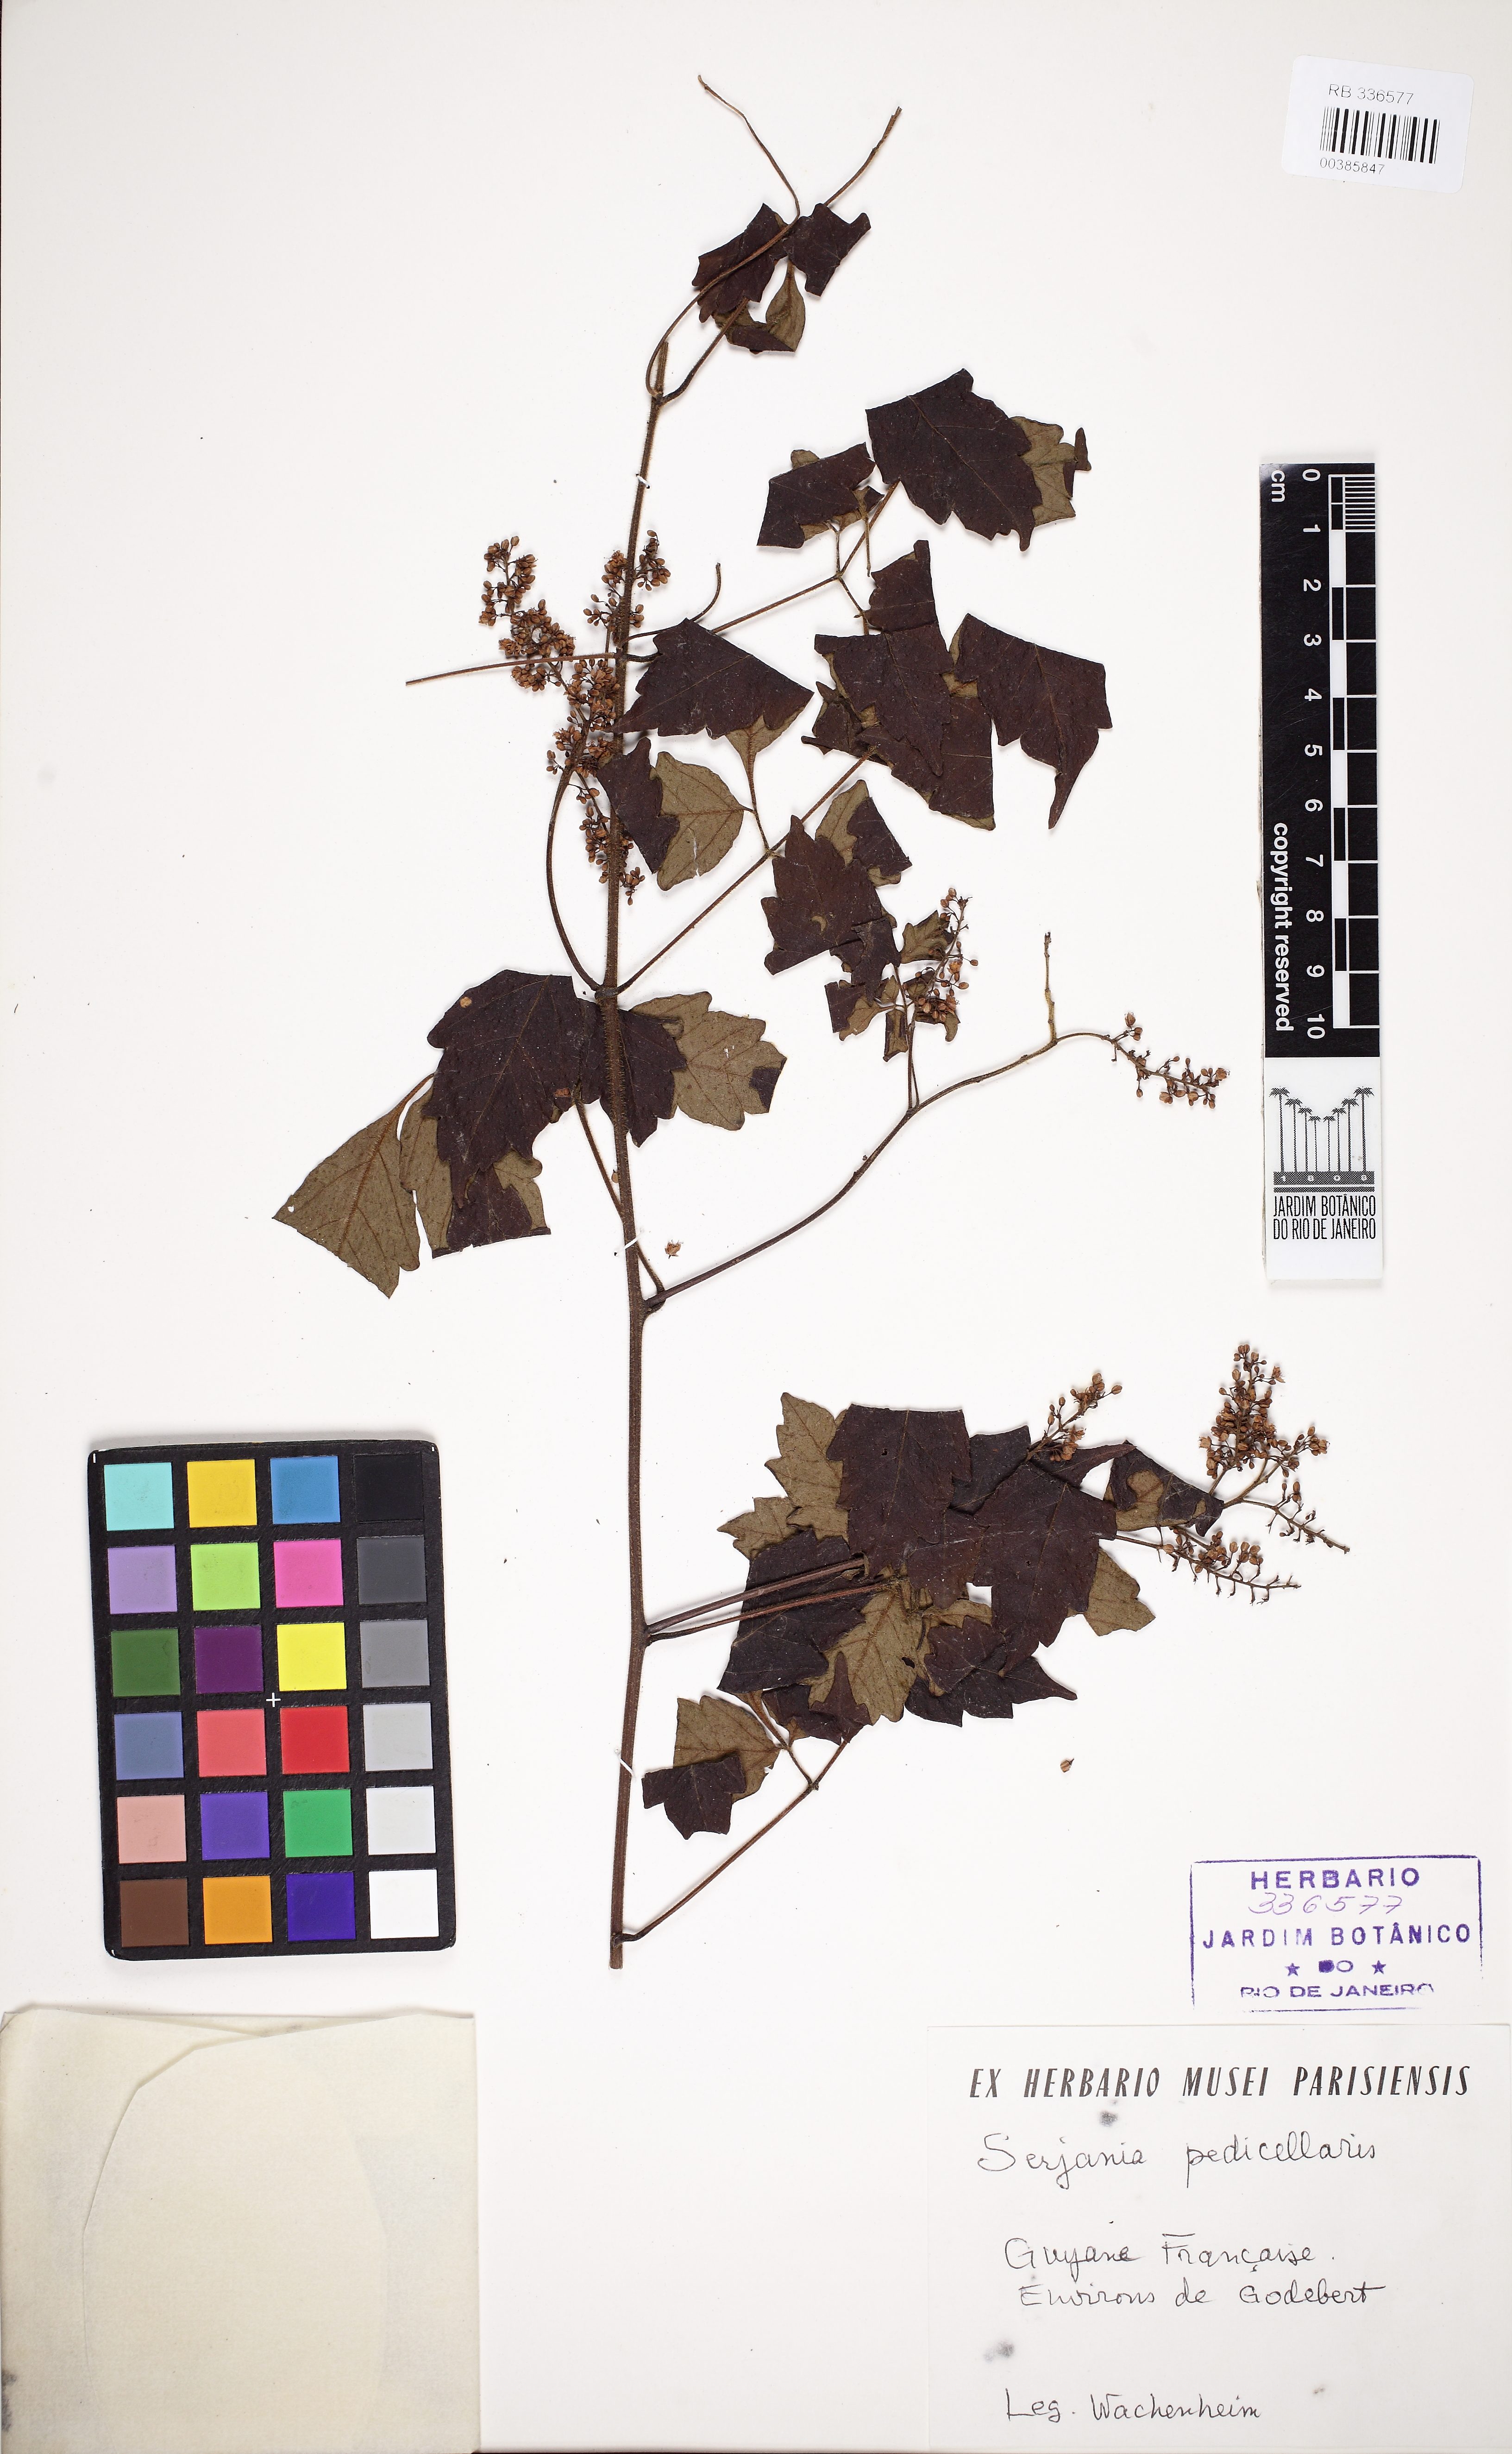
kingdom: Plantae
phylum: Tracheophyta
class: Magnoliopsida
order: Sapindales
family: Sapindaceae
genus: Serjania
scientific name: Serjania pedicellaris
